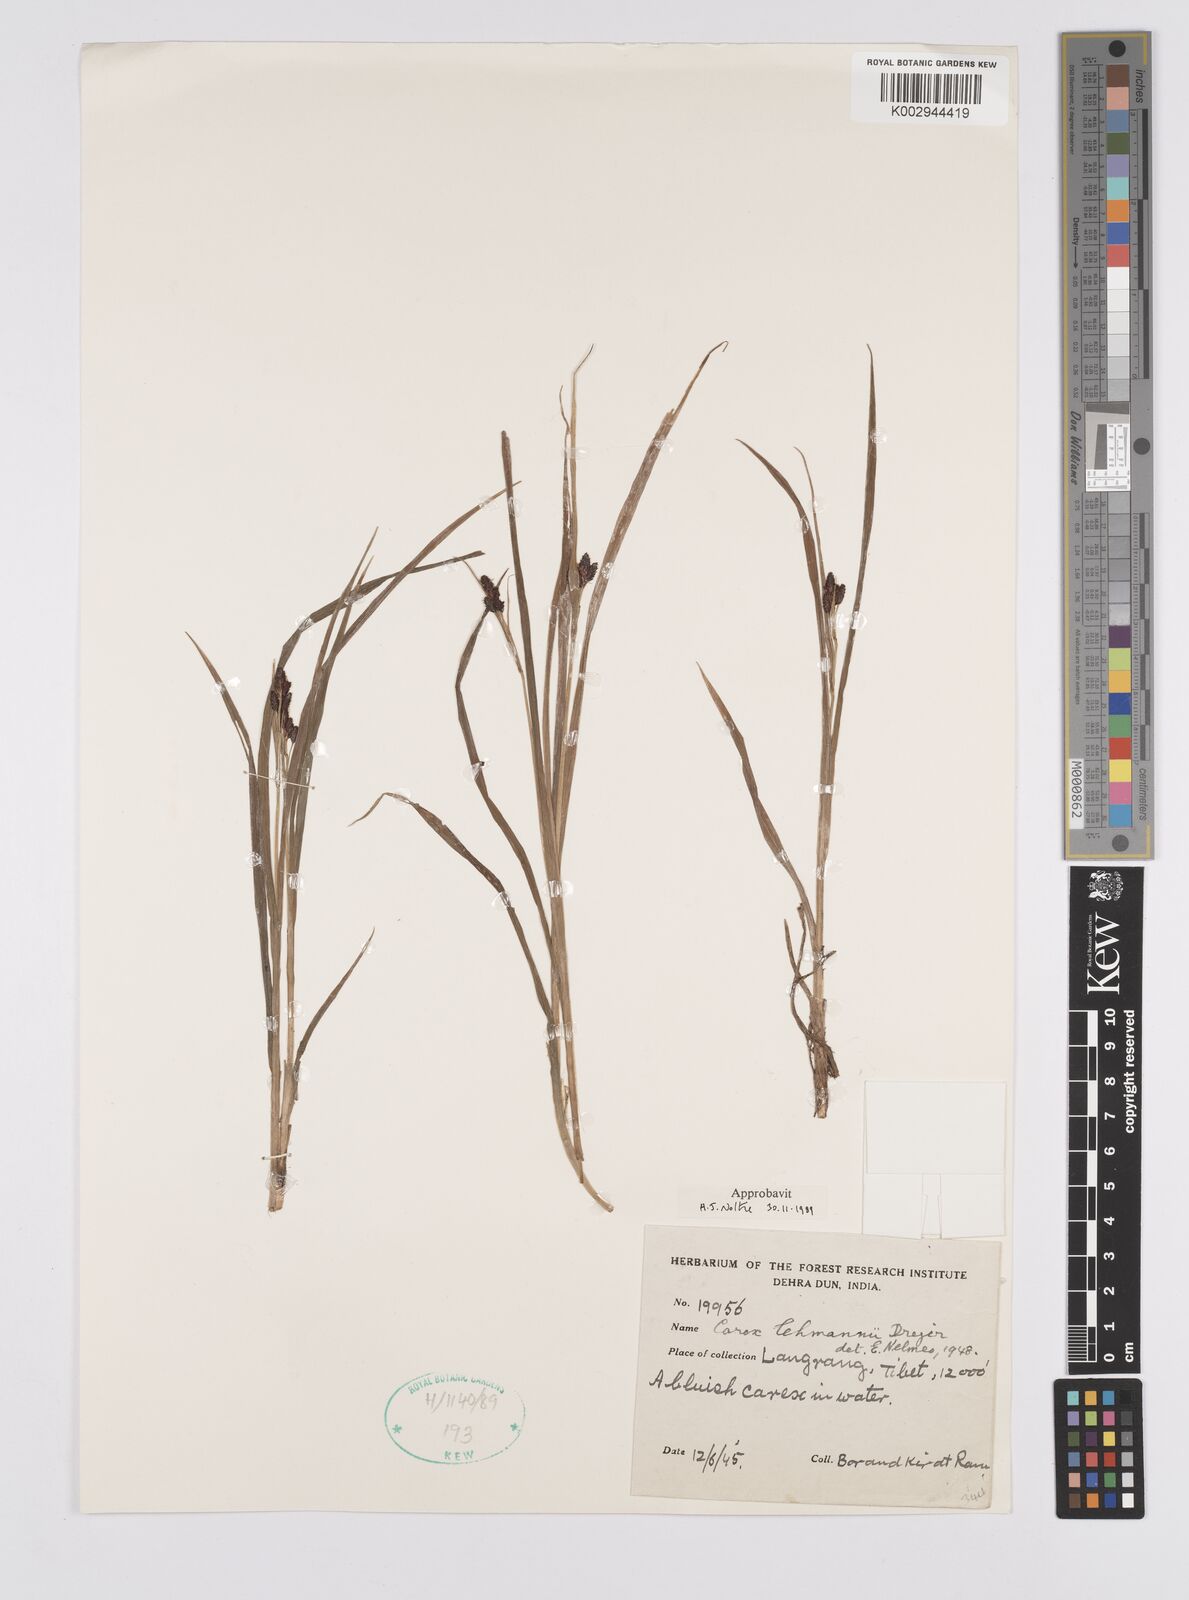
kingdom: Plantae
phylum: Tracheophyta
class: Liliopsida
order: Poales
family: Cyperaceae
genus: Carex
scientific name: Carex lehmannii
